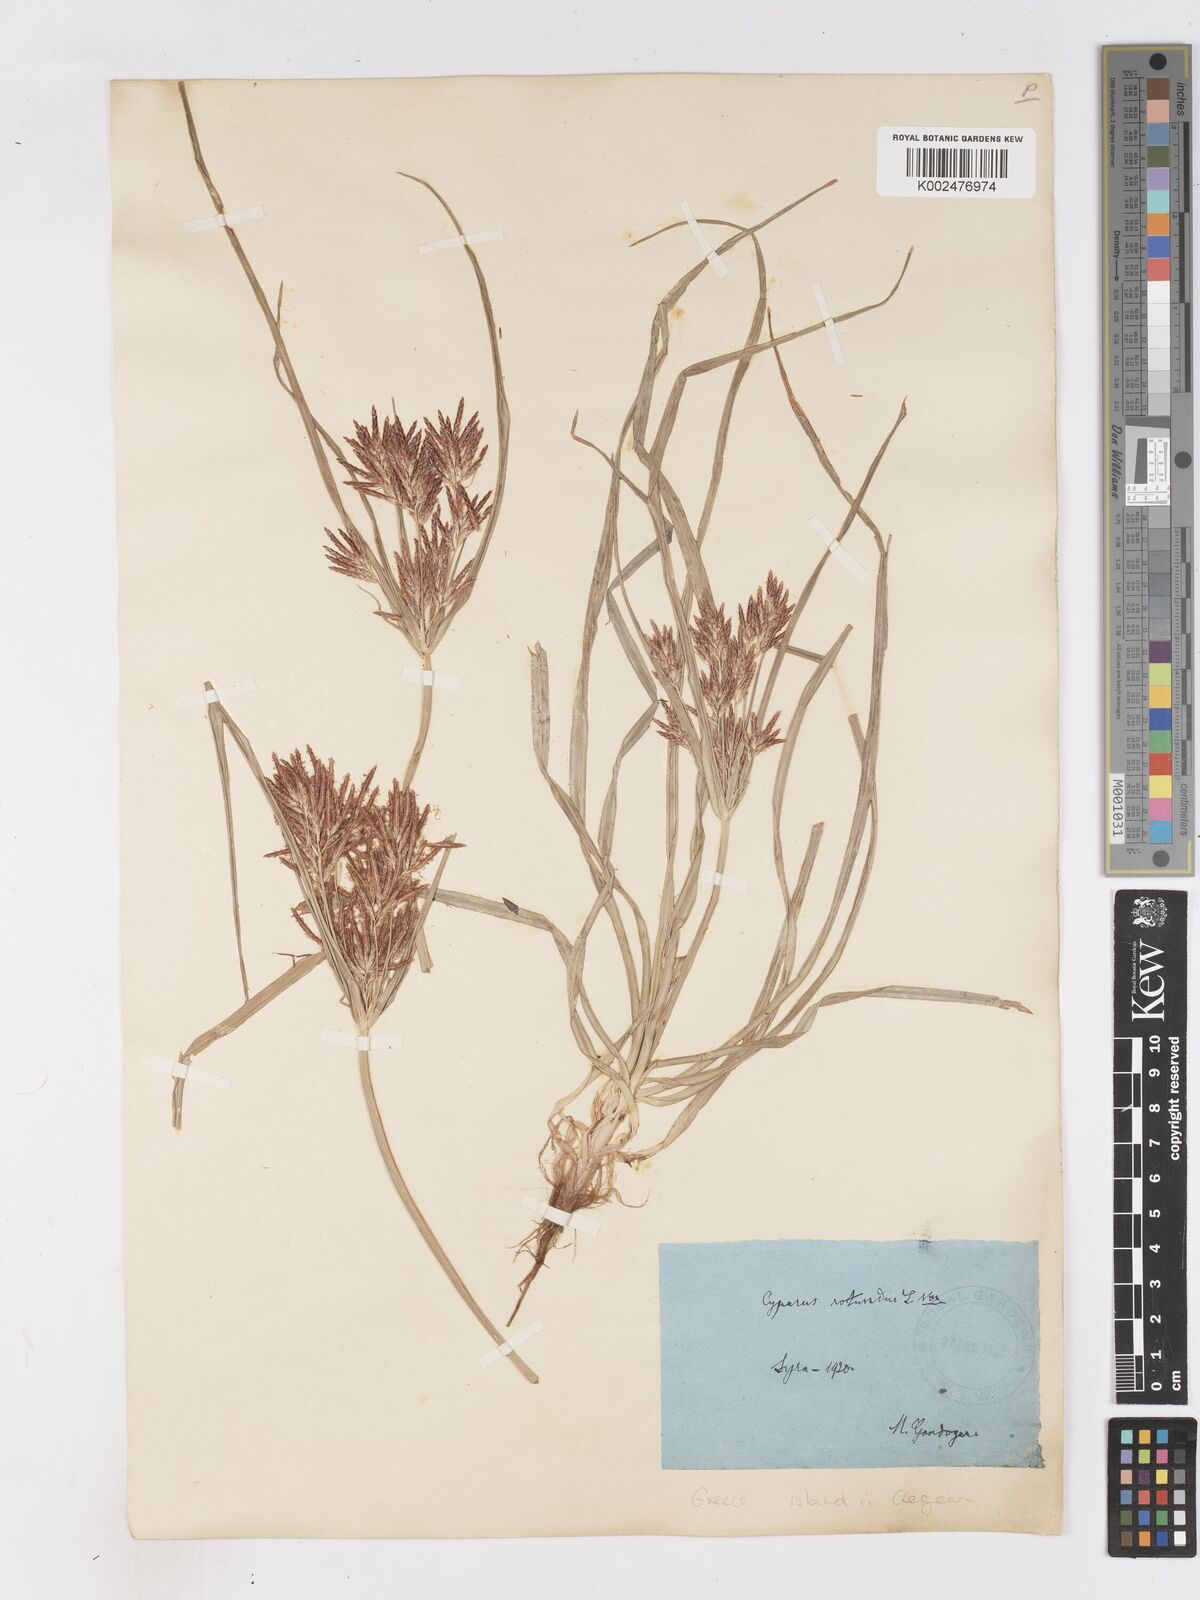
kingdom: Plantae
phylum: Tracheophyta
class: Liliopsida
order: Poales
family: Cyperaceae
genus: Cyperus
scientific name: Cyperus rotundus
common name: Nutgrass
